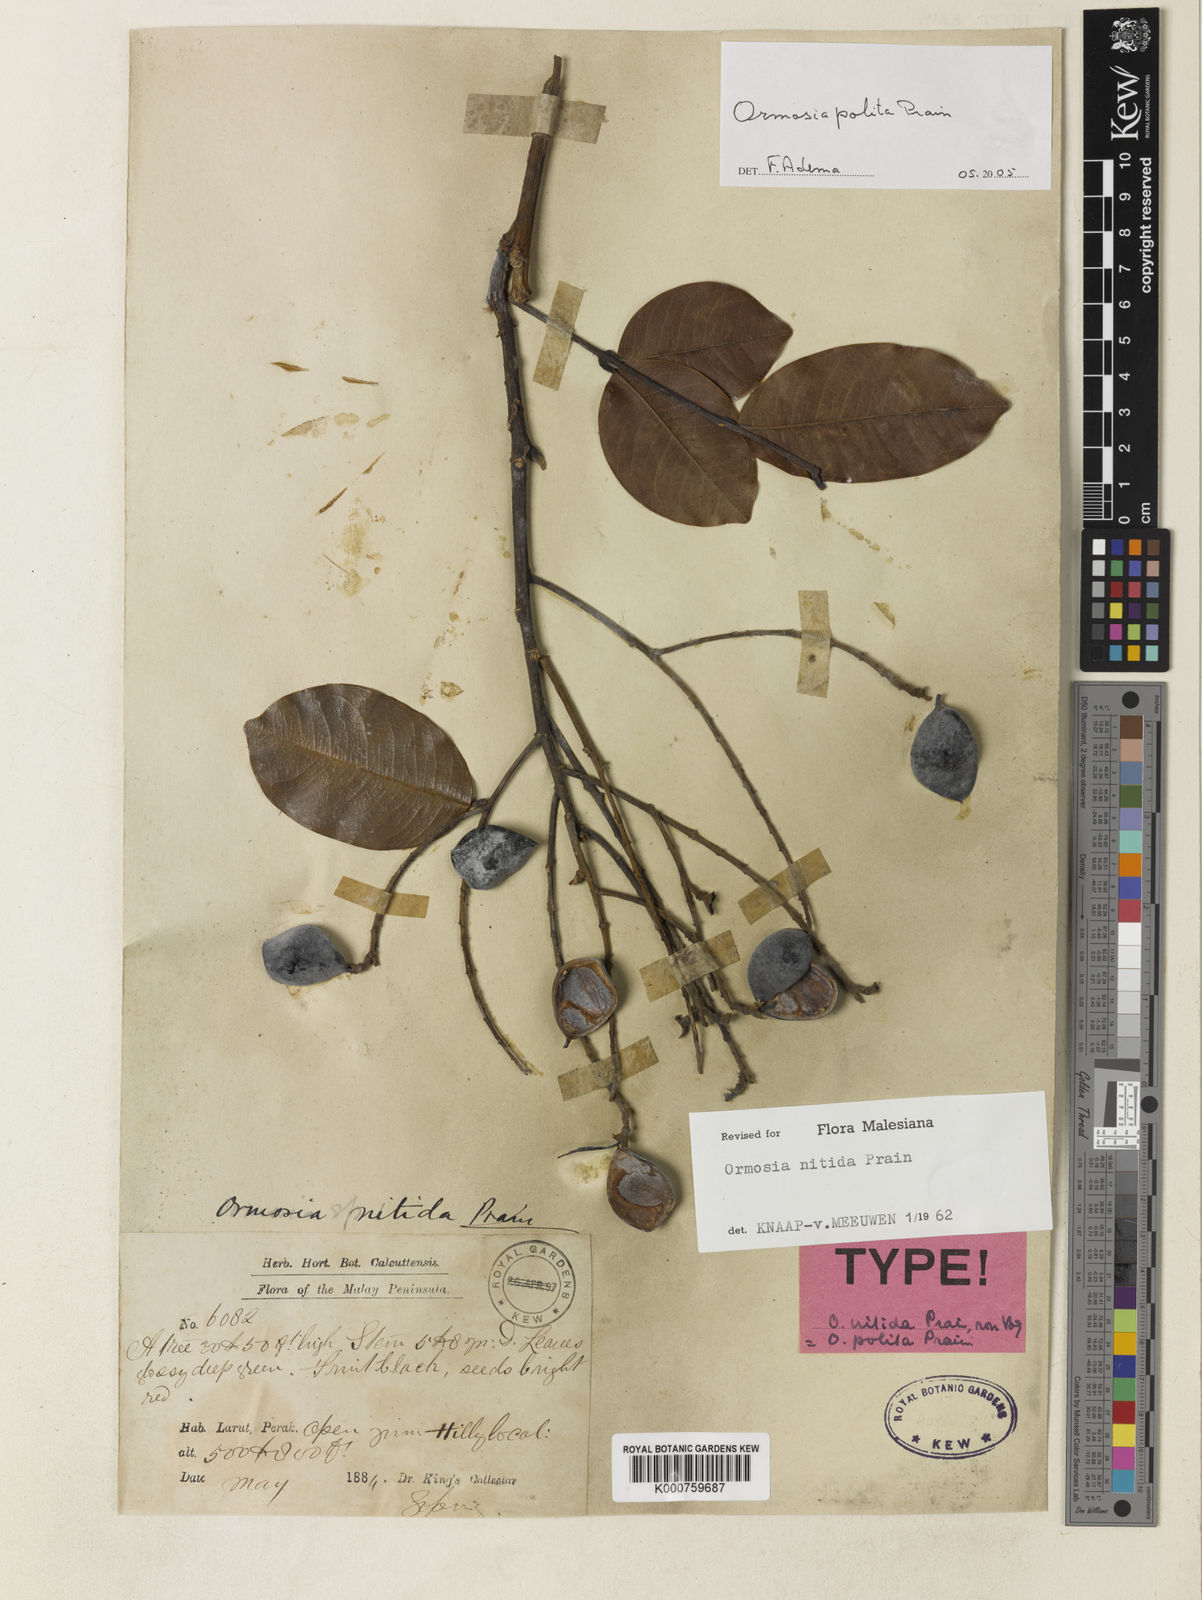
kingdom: Plantae
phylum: Tracheophyta
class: Magnoliopsida
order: Fabales
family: Fabaceae
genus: Ormosia
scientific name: Ormosia polita
